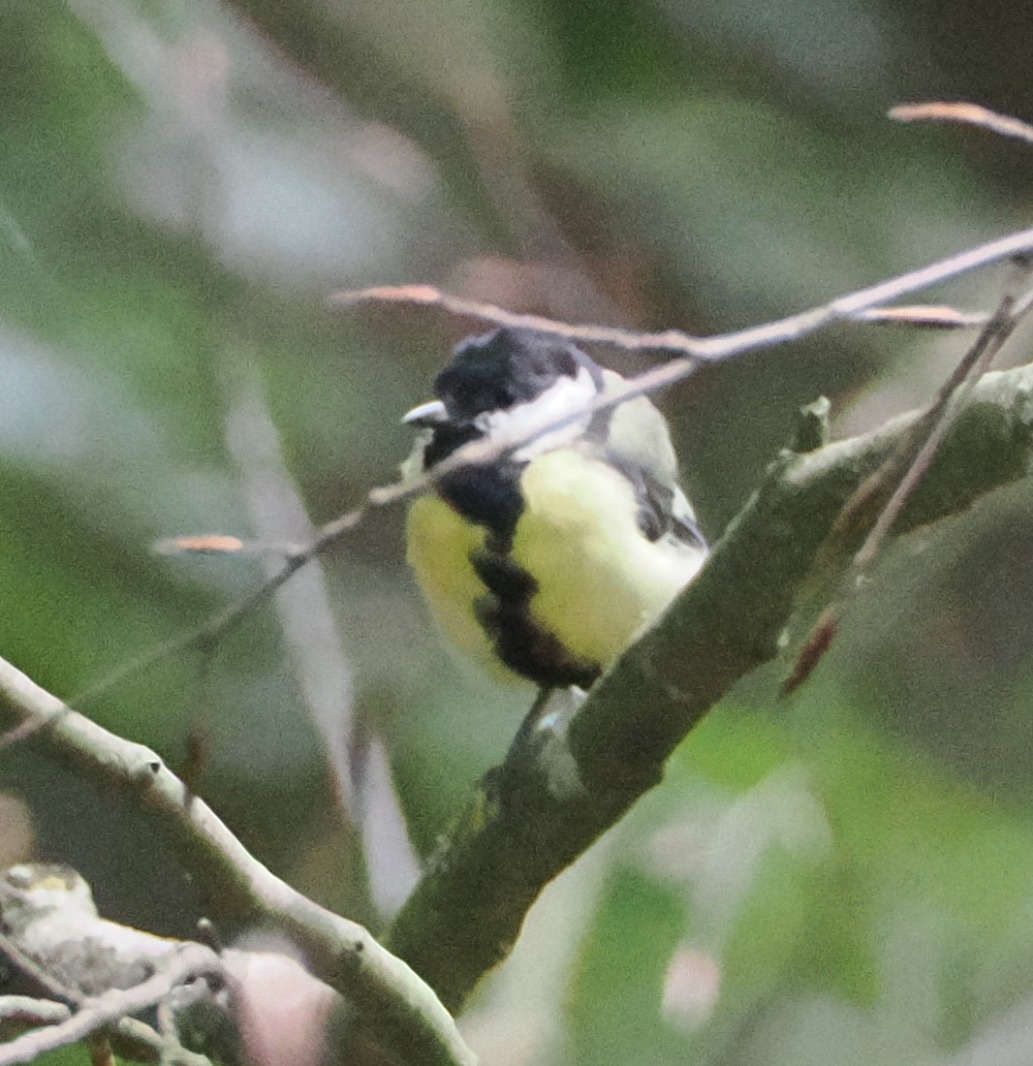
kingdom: Animalia
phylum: Chordata
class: Aves
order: Passeriformes
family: Paridae
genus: Parus
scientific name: Parus major
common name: Musvit
